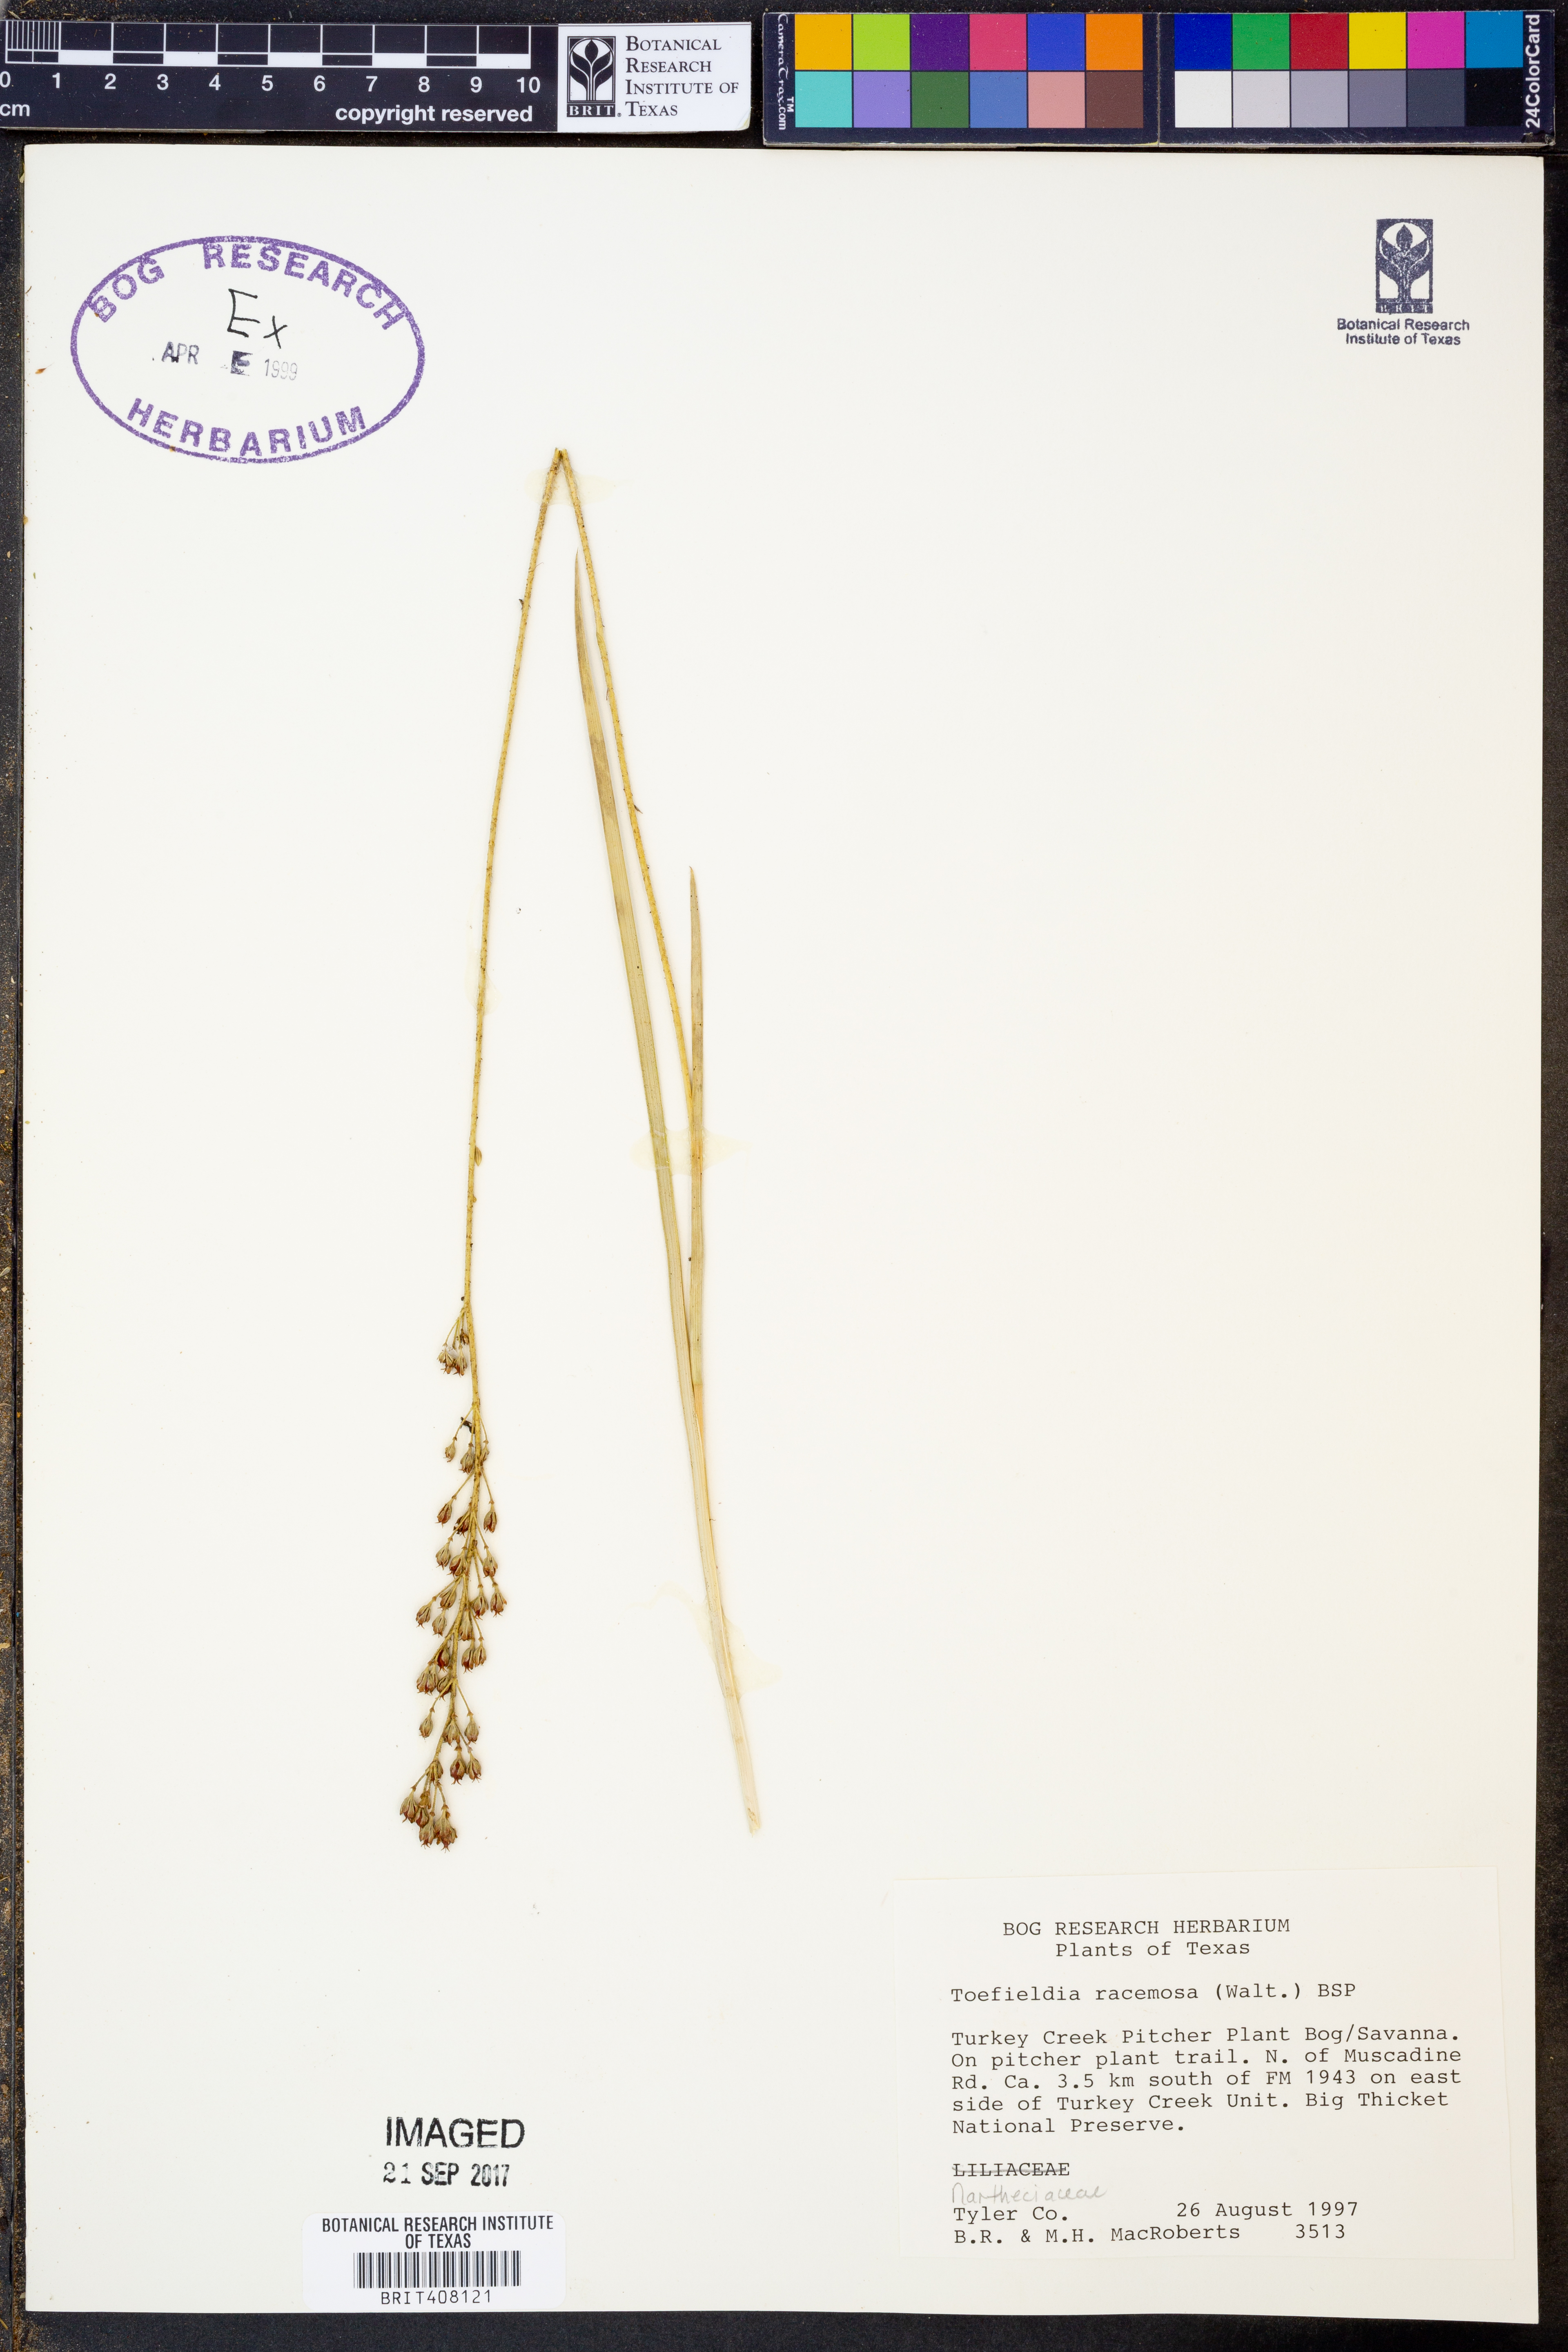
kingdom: Plantae
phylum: Tracheophyta
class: Liliopsida
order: Alismatales
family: Tofieldiaceae
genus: Triantha
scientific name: Triantha racemosa
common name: Coastal false asphodel
